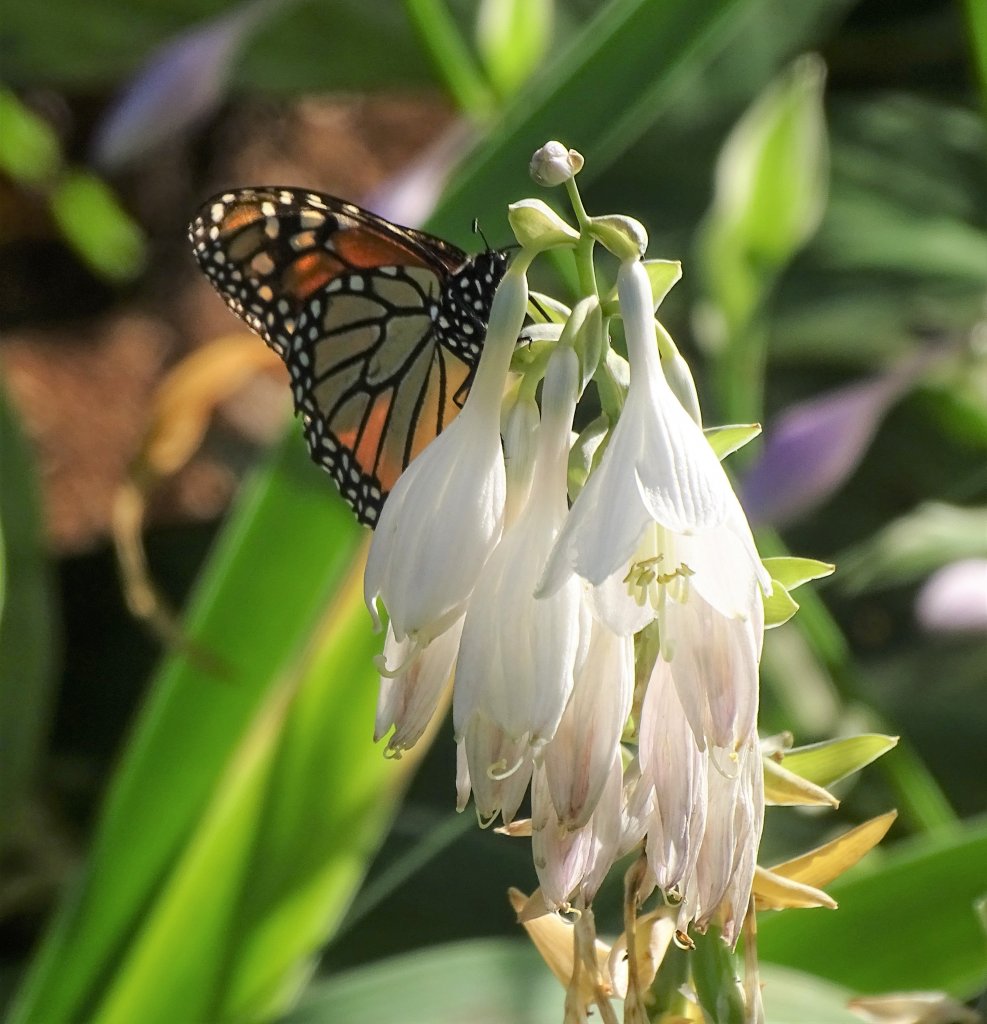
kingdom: Animalia
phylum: Arthropoda
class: Insecta
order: Lepidoptera
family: Nymphalidae
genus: Danaus
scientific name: Danaus plexippus
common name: Monarch
